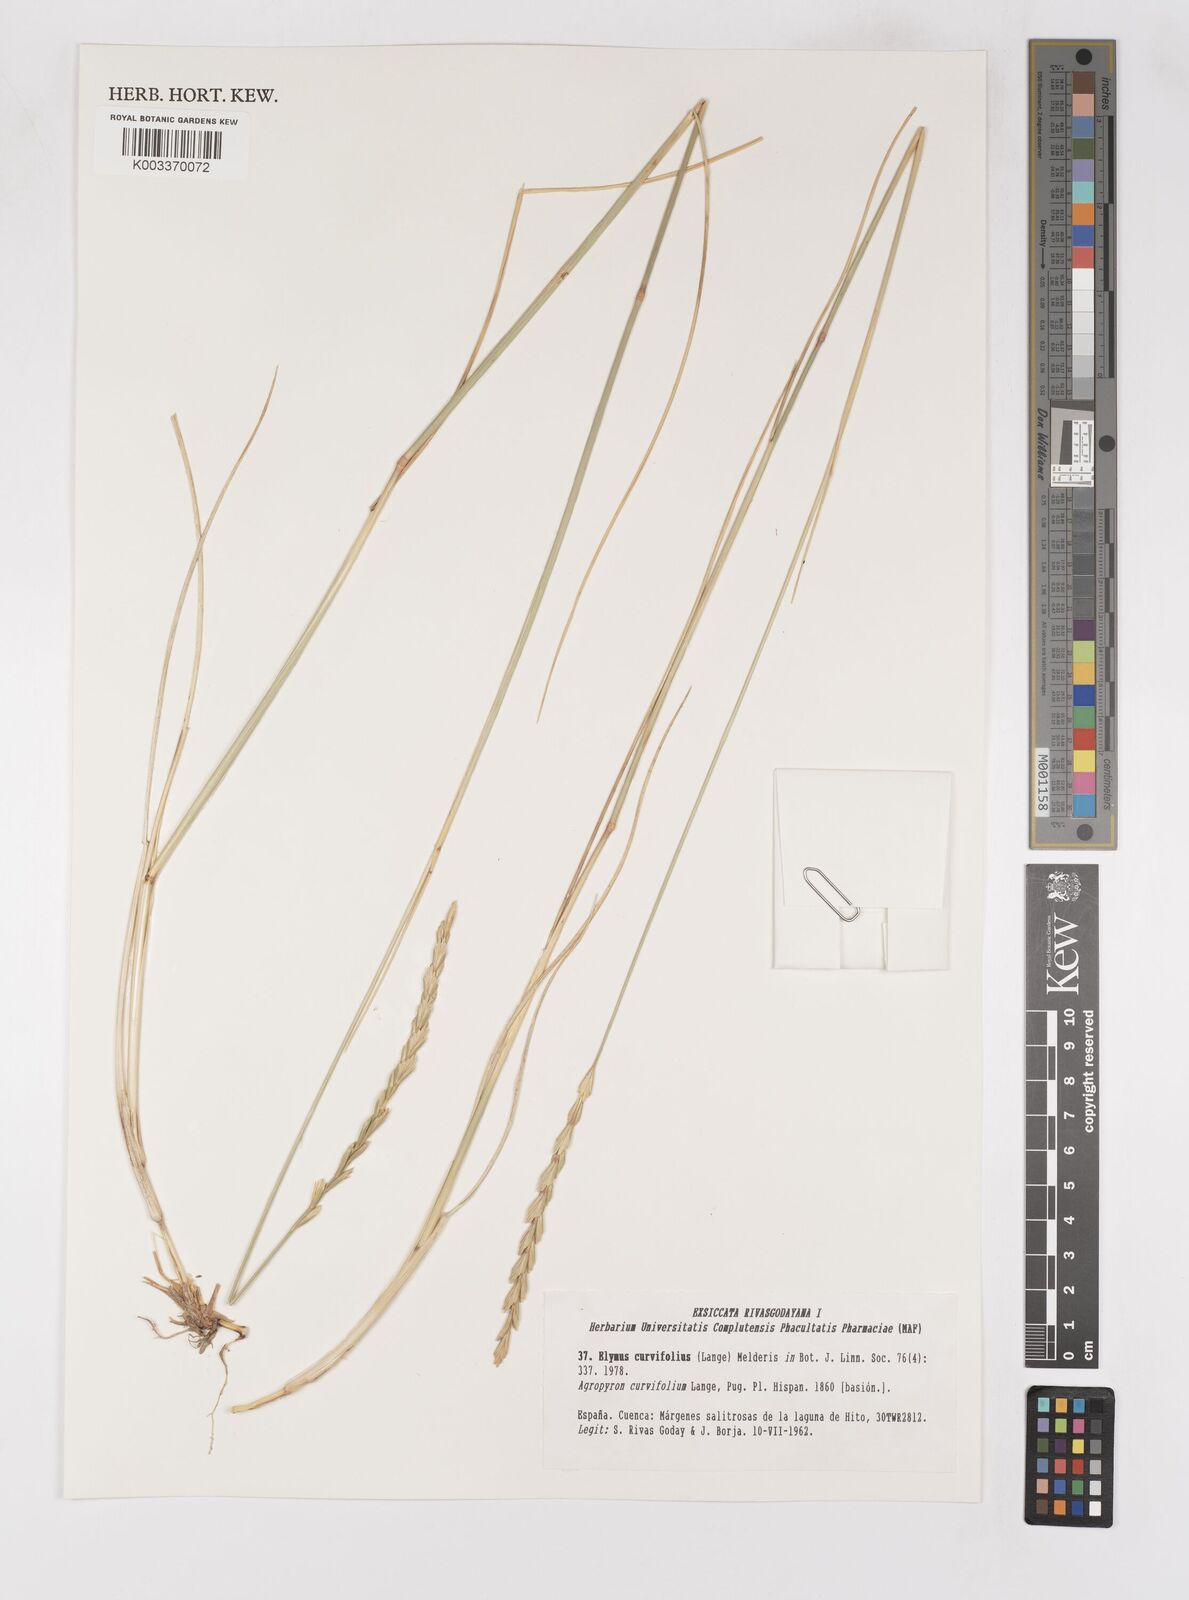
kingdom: Plantae
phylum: Tracheophyta
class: Liliopsida
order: Poales
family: Poaceae
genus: Thinopyrum
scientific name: Thinopyrum curvifolium
